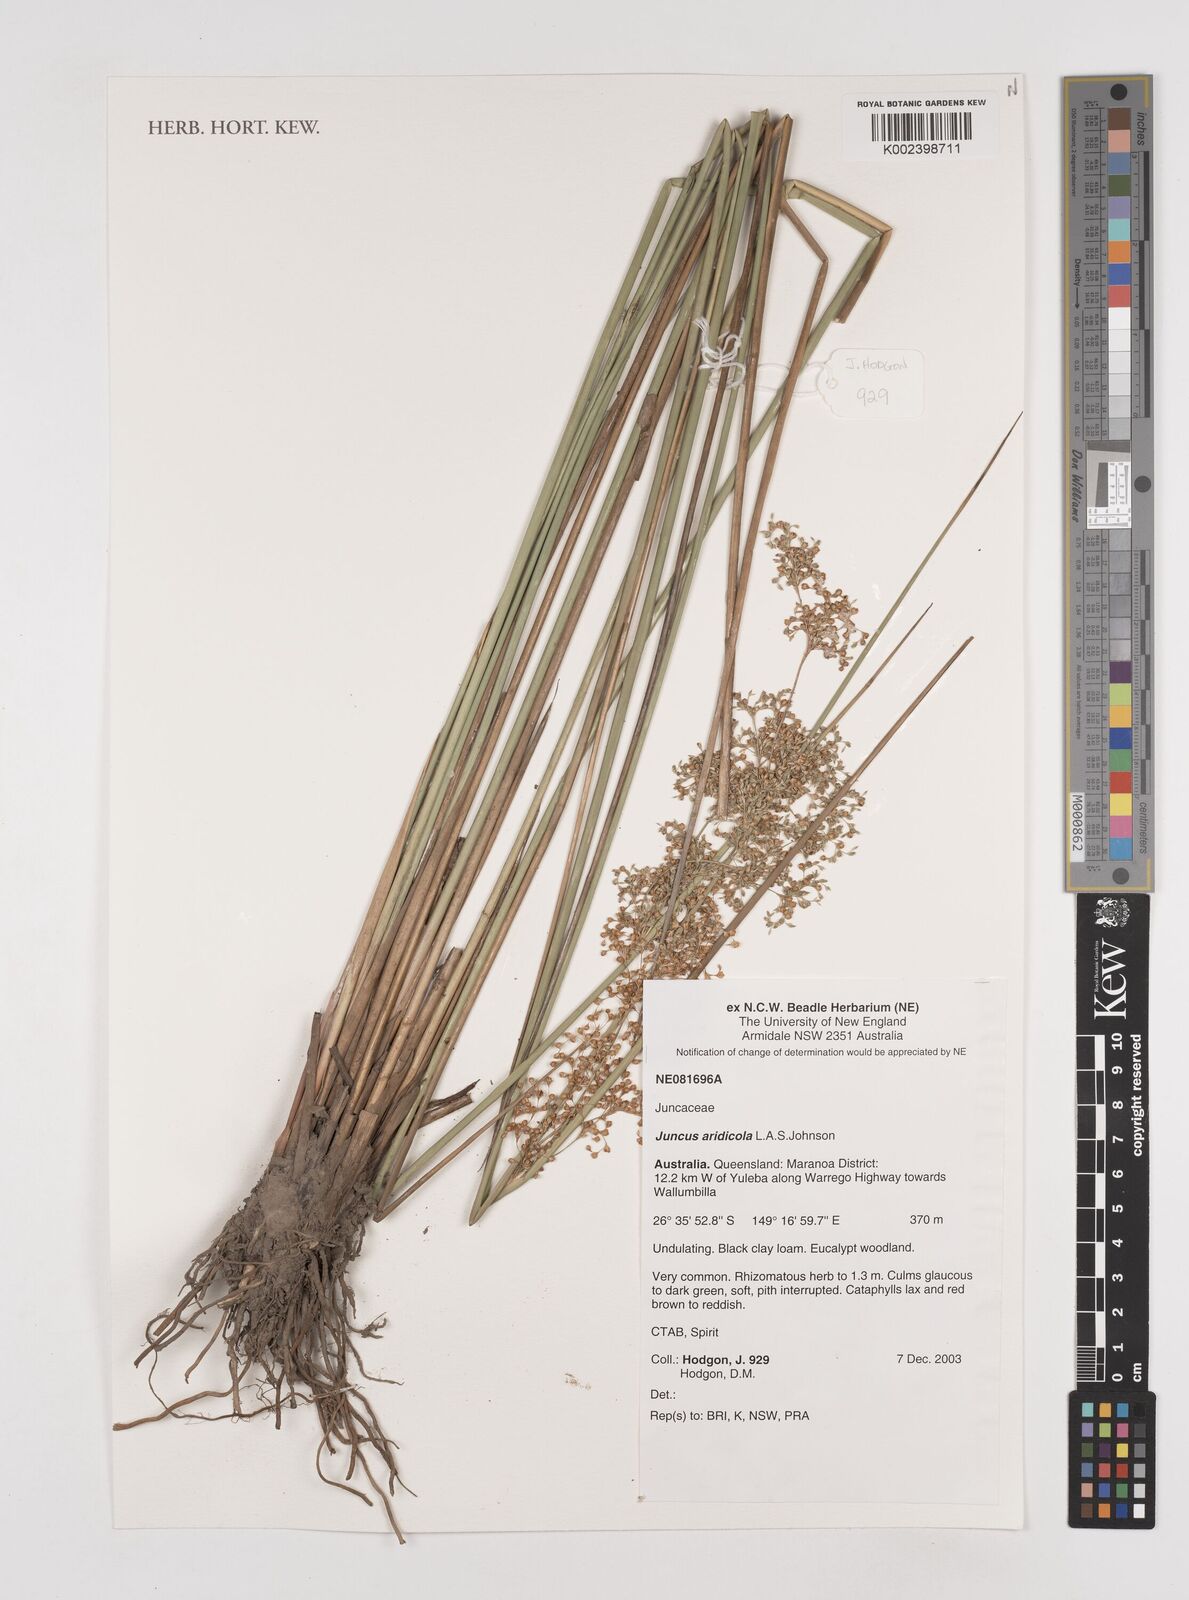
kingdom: Plantae
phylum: Tracheophyta
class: Liliopsida
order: Poales
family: Juncaceae
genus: Juncus
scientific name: Juncus aridicola
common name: Tussock rush
